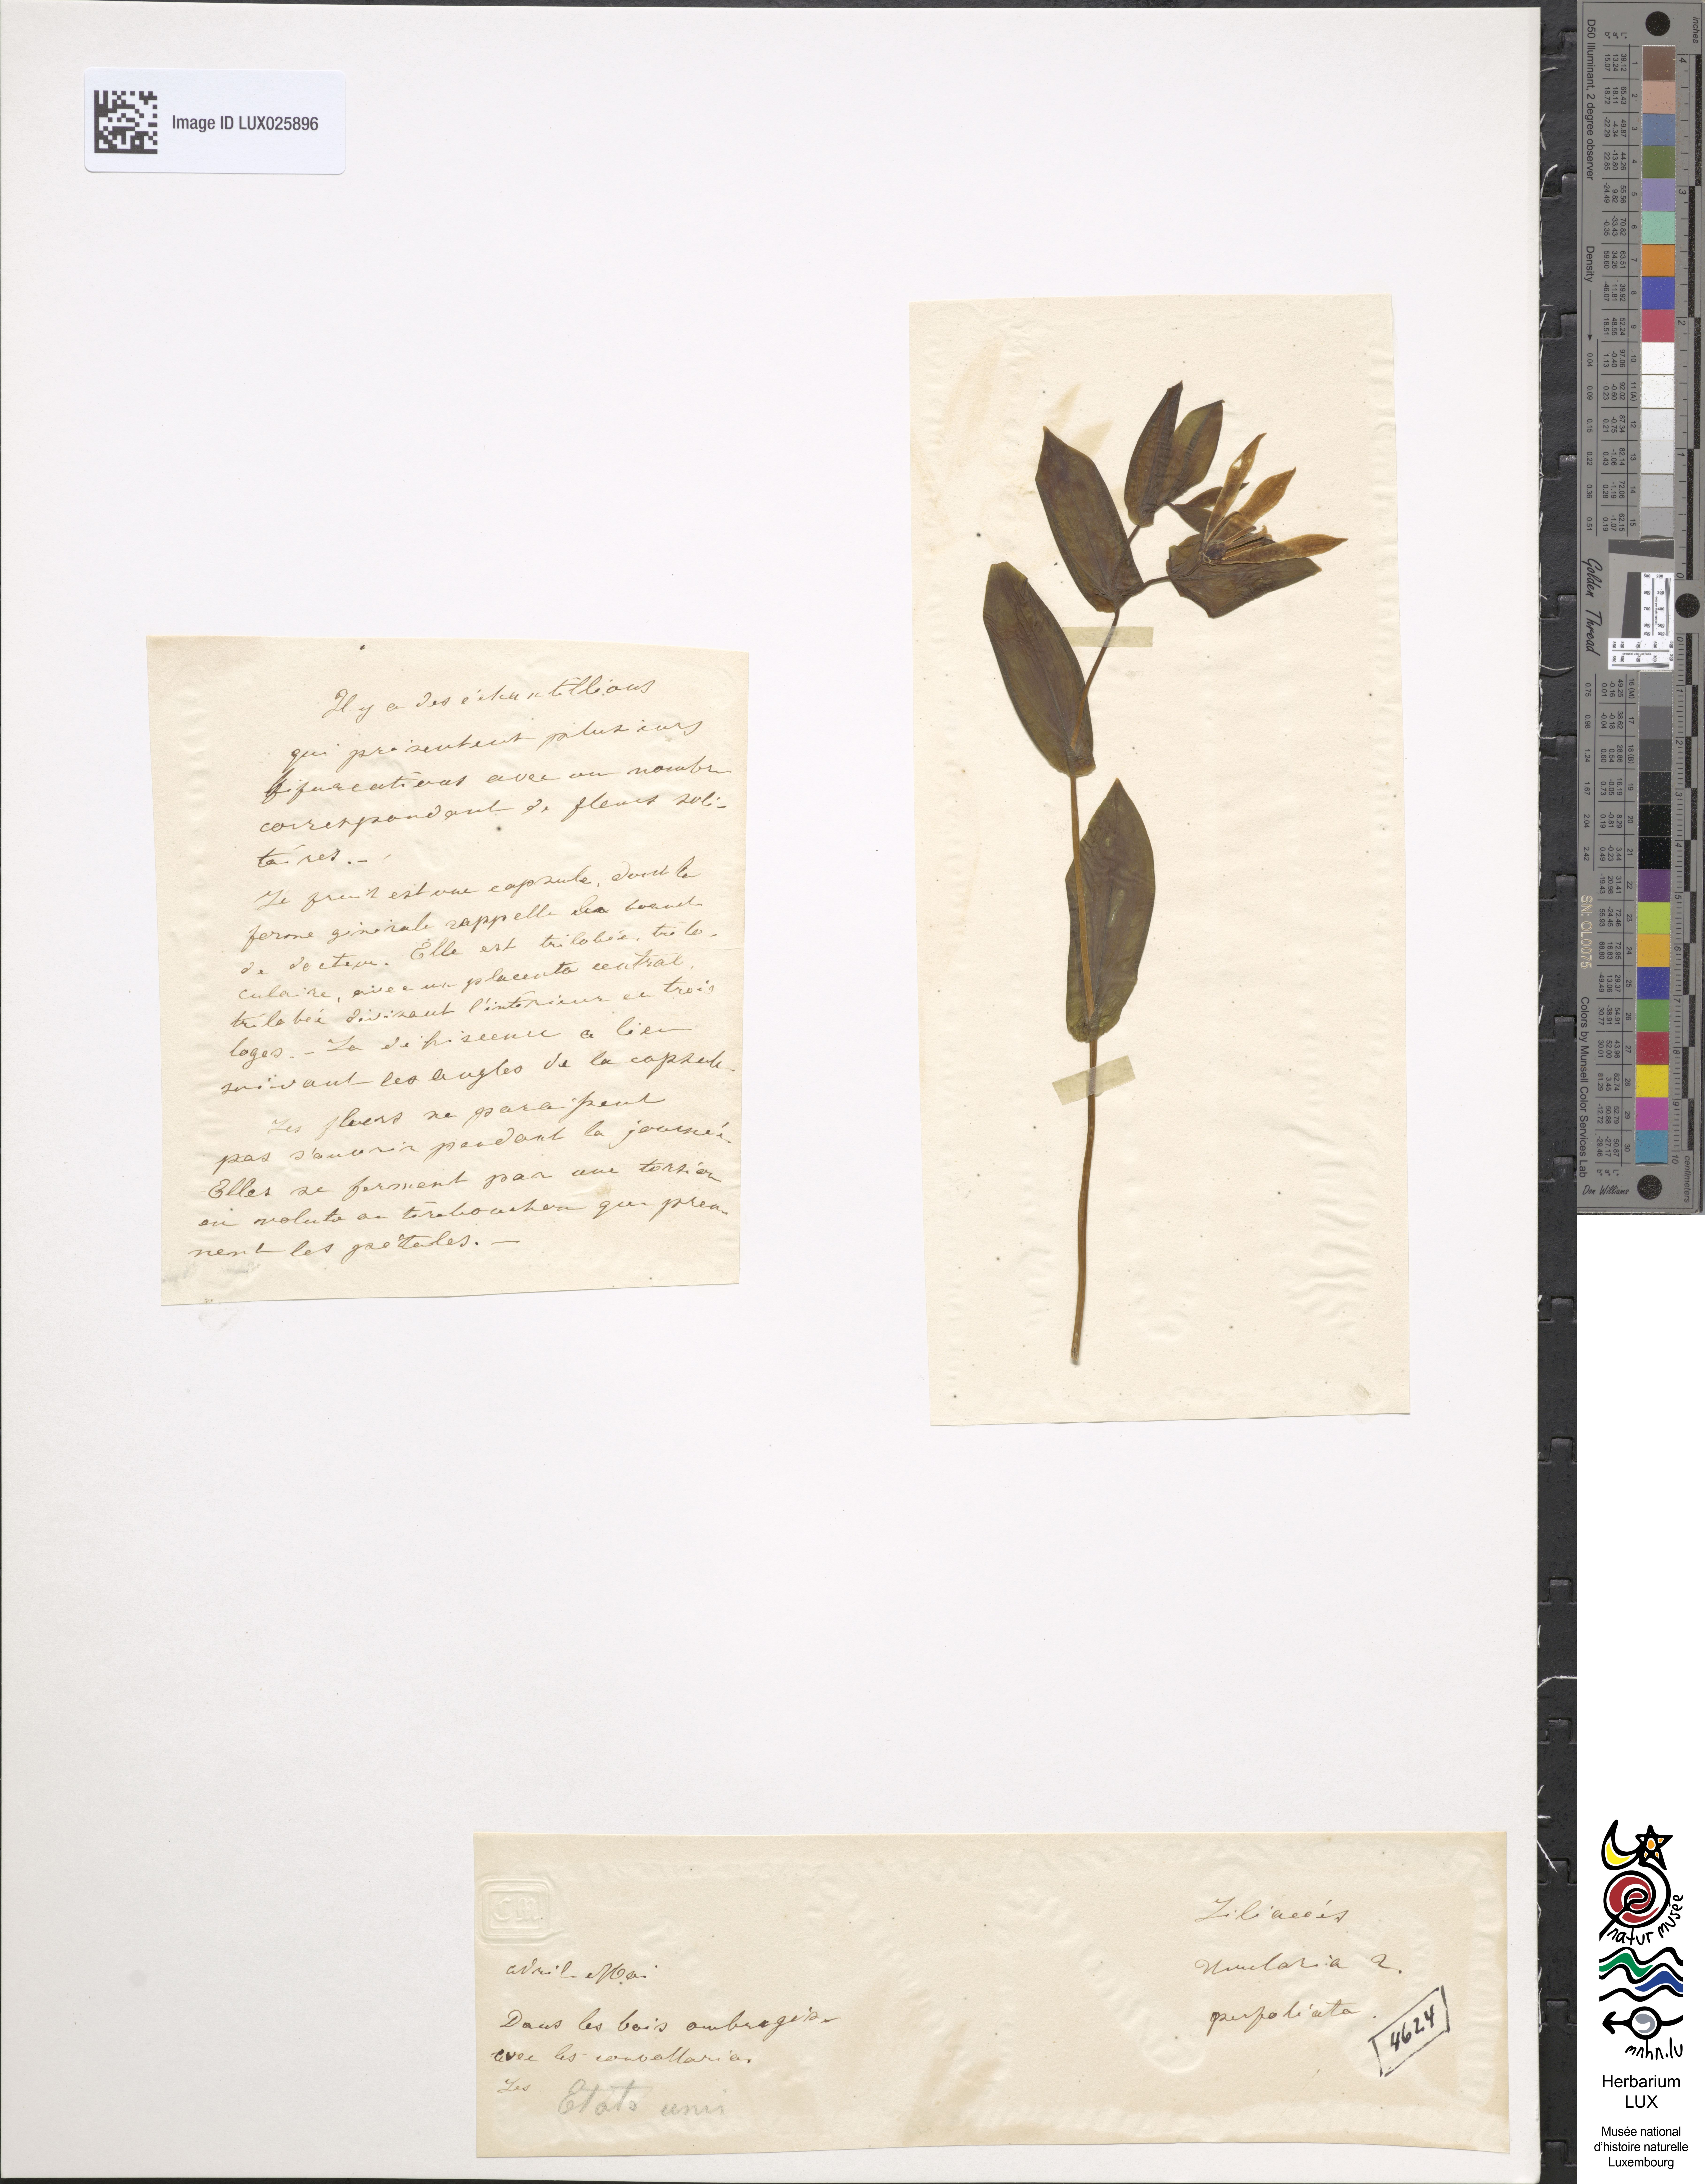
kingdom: Plantae
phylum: Tracheophyta
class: Liliopsida
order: Liliales
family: Colchicaceae
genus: Uvularia
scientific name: Uvularia perfoliata
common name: Perfoliate bellwort
